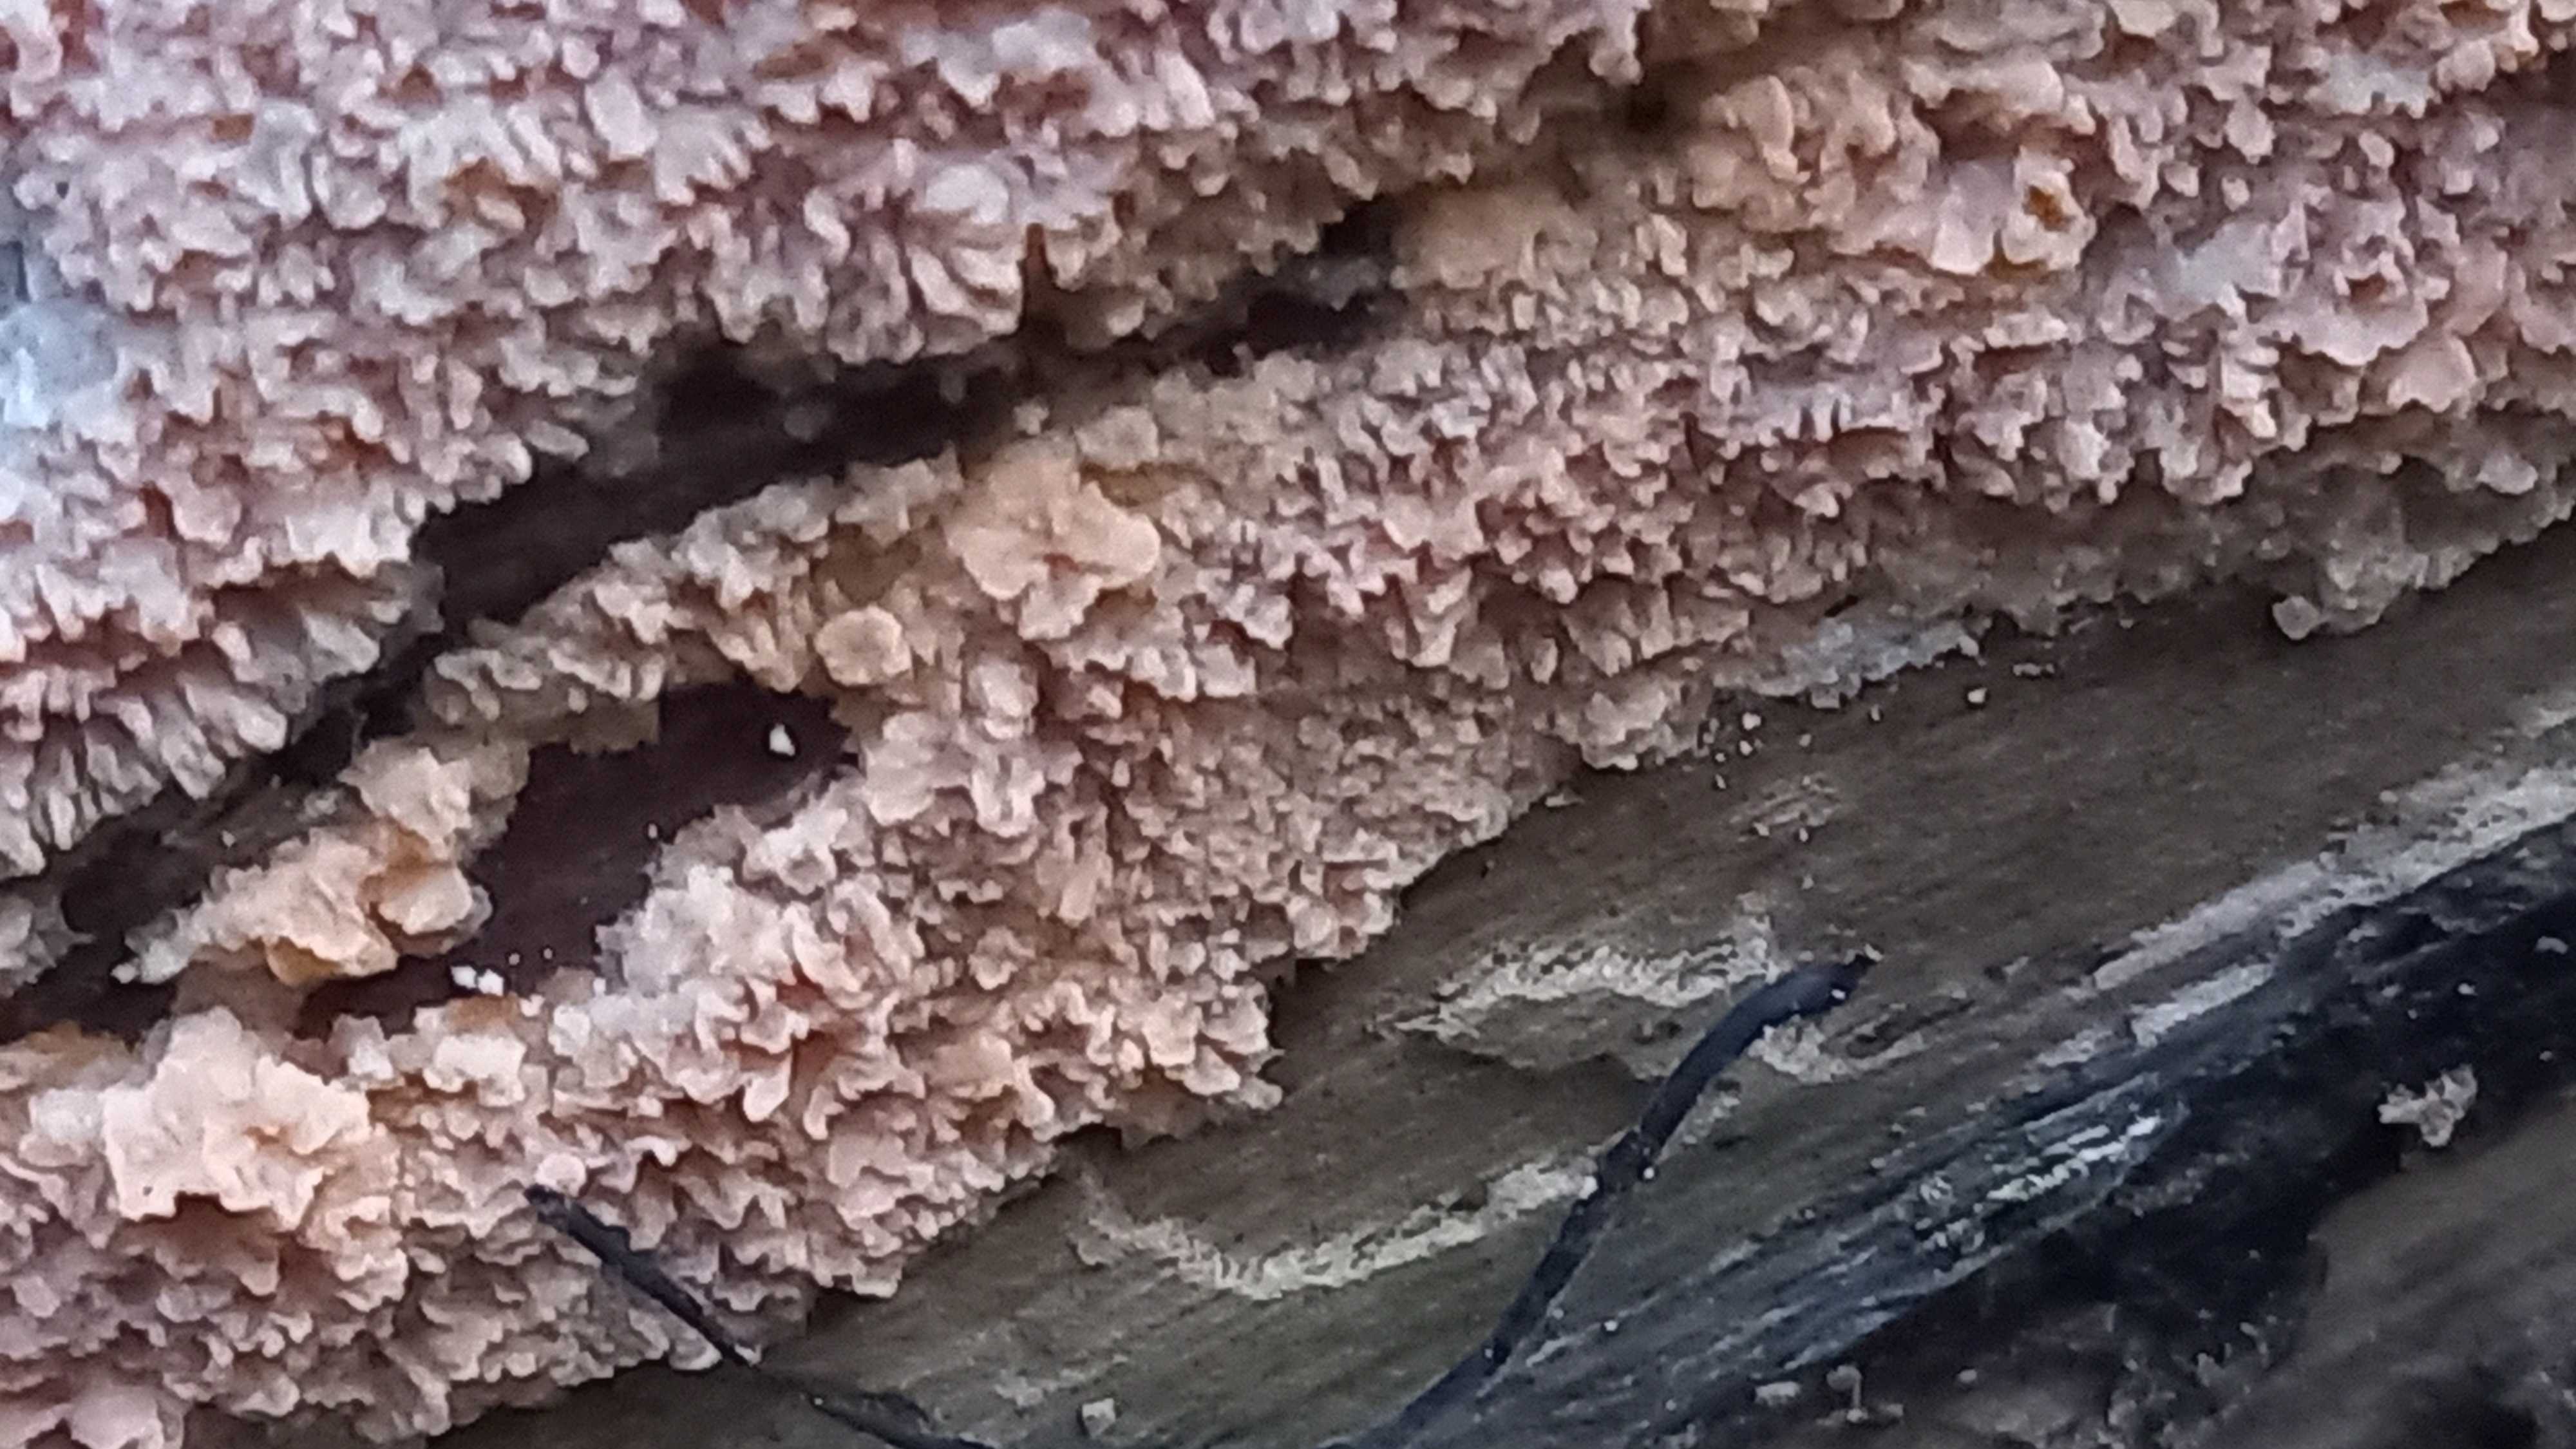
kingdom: Fungi
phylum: Basidiomycota
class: Agaricomycetes
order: Polyporales
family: Meruliaceae
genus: Phlebia
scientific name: Phlebia radiata
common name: stråle-åresvamp
